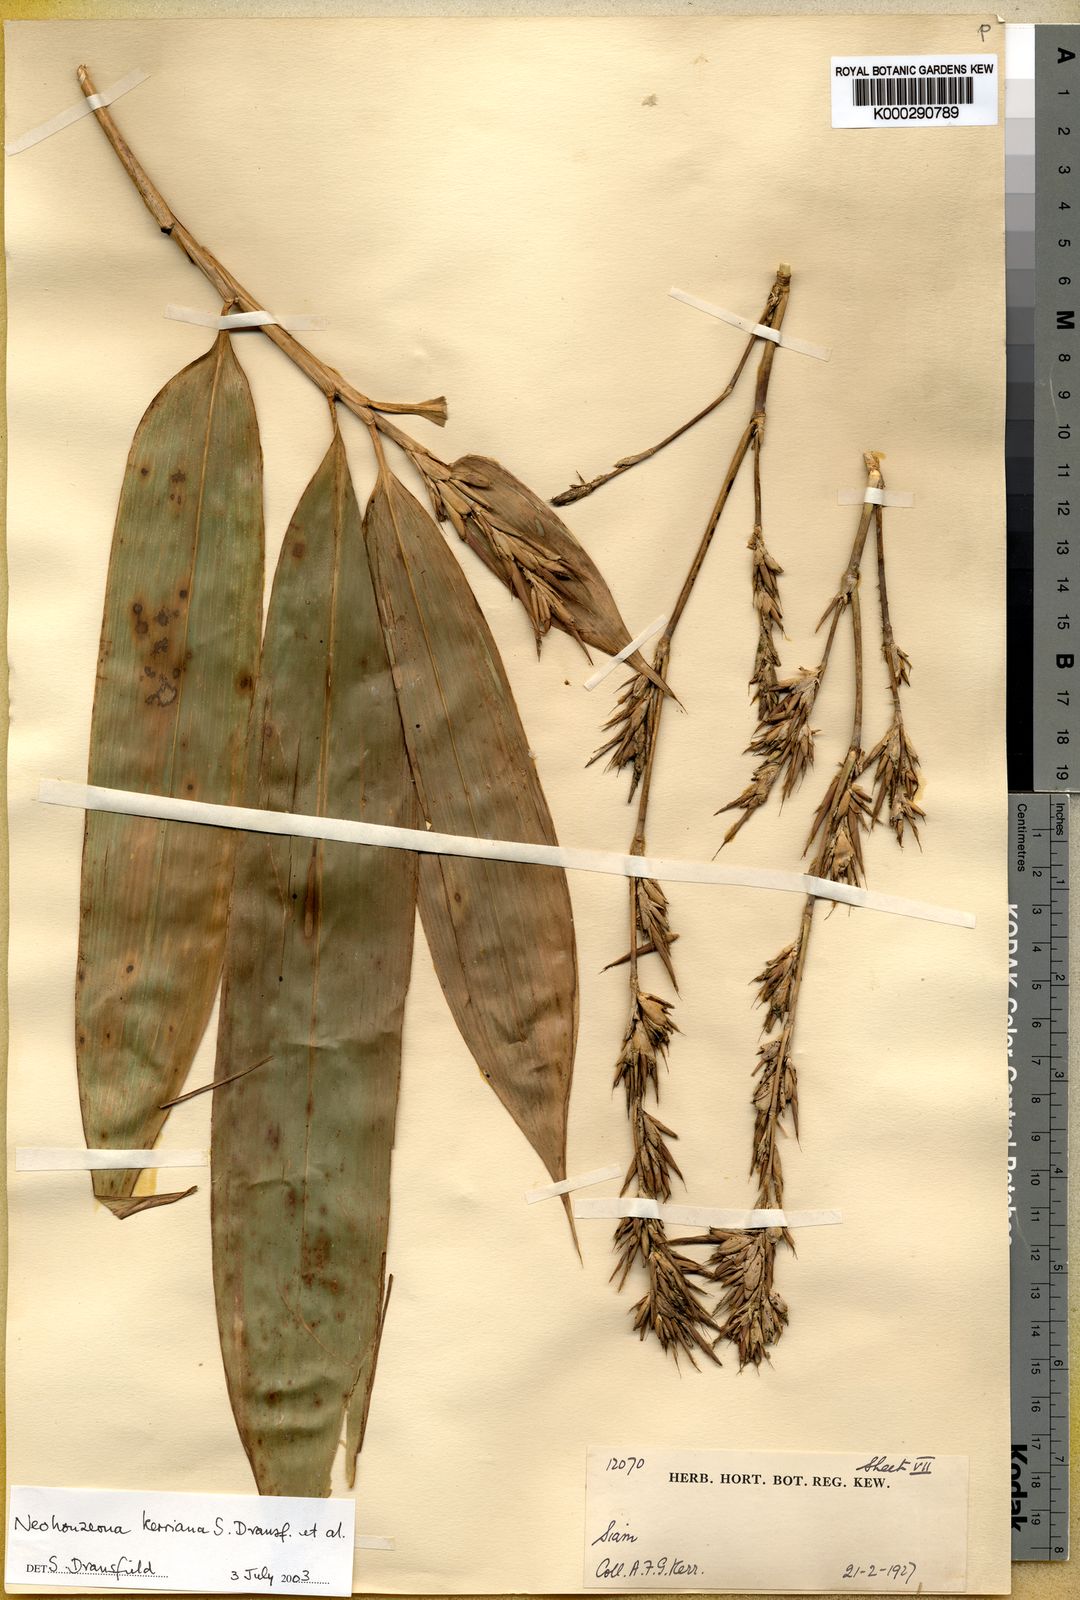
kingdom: Plantae
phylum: Tracheophyta
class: Liliopsida
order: Poales
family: Poaceae
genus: Schizostachyum
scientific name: Schizostachyum
